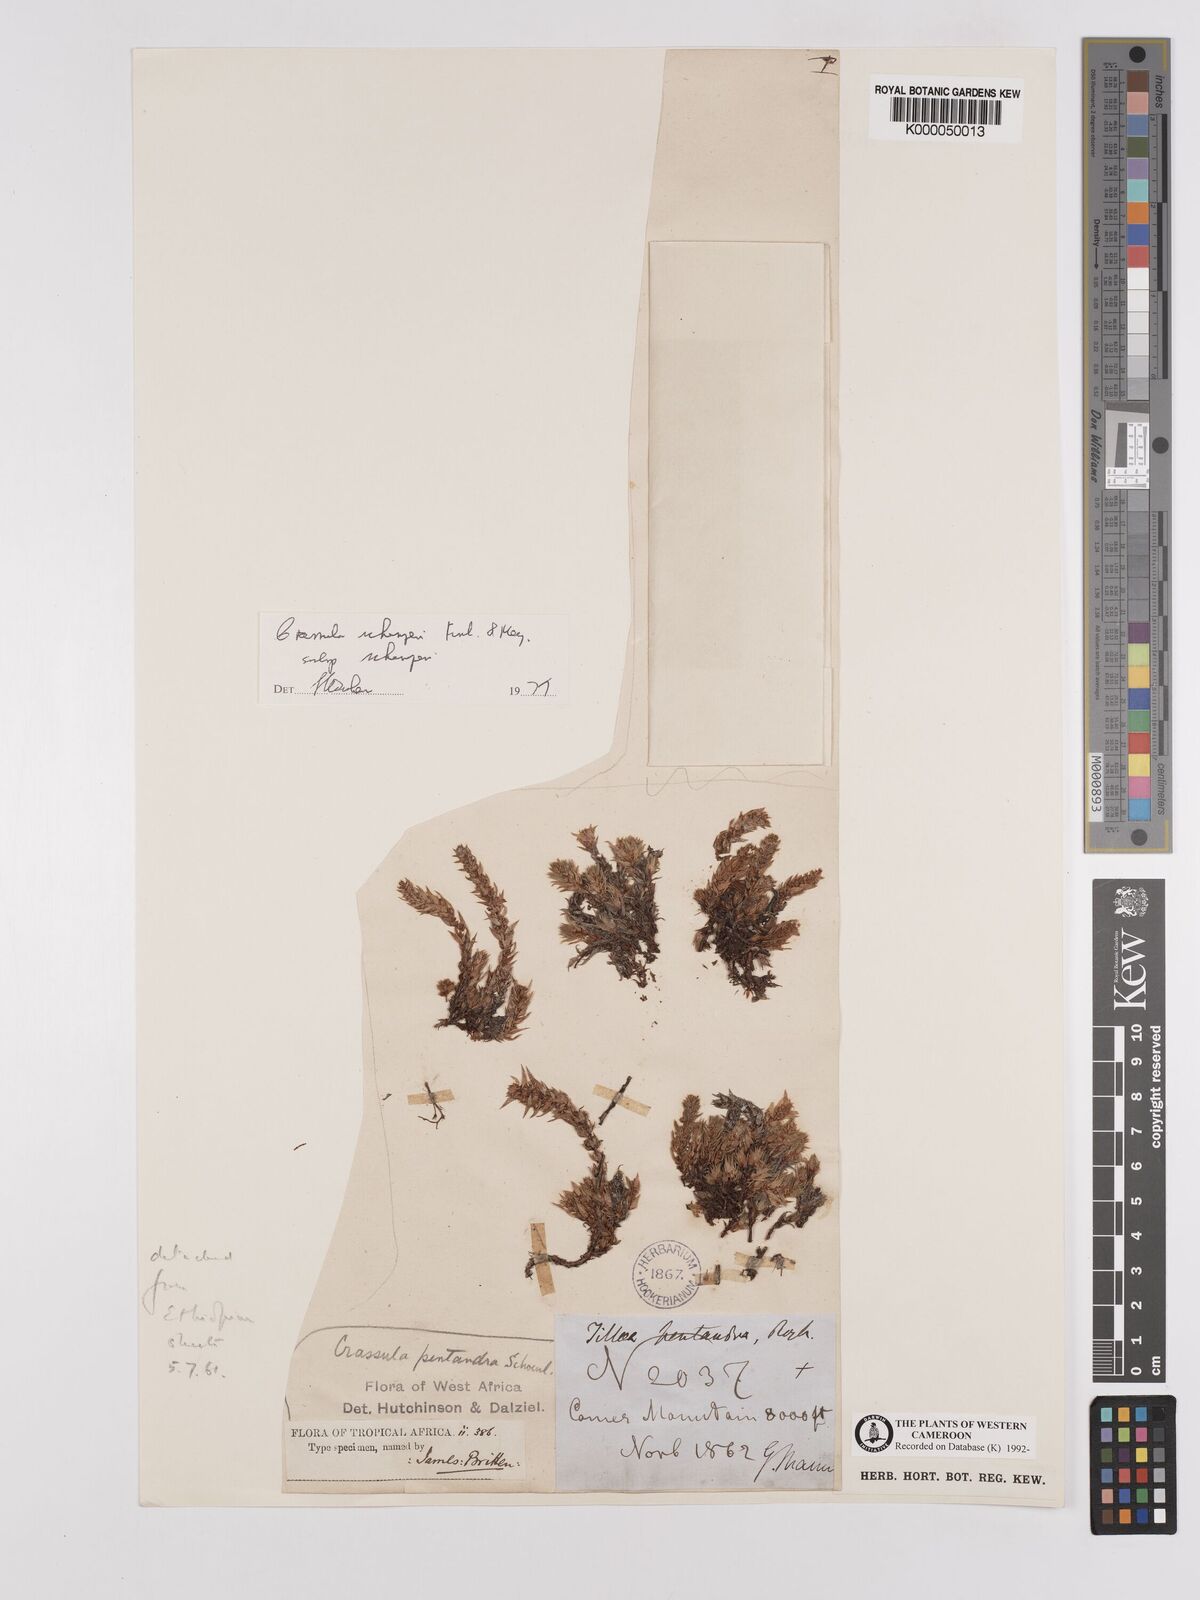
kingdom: Plantae
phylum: Tracheophyta
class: Magnoliopsida
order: Saxifragales
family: Crassulaceae
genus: Crassula
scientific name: Crassula schimperi
